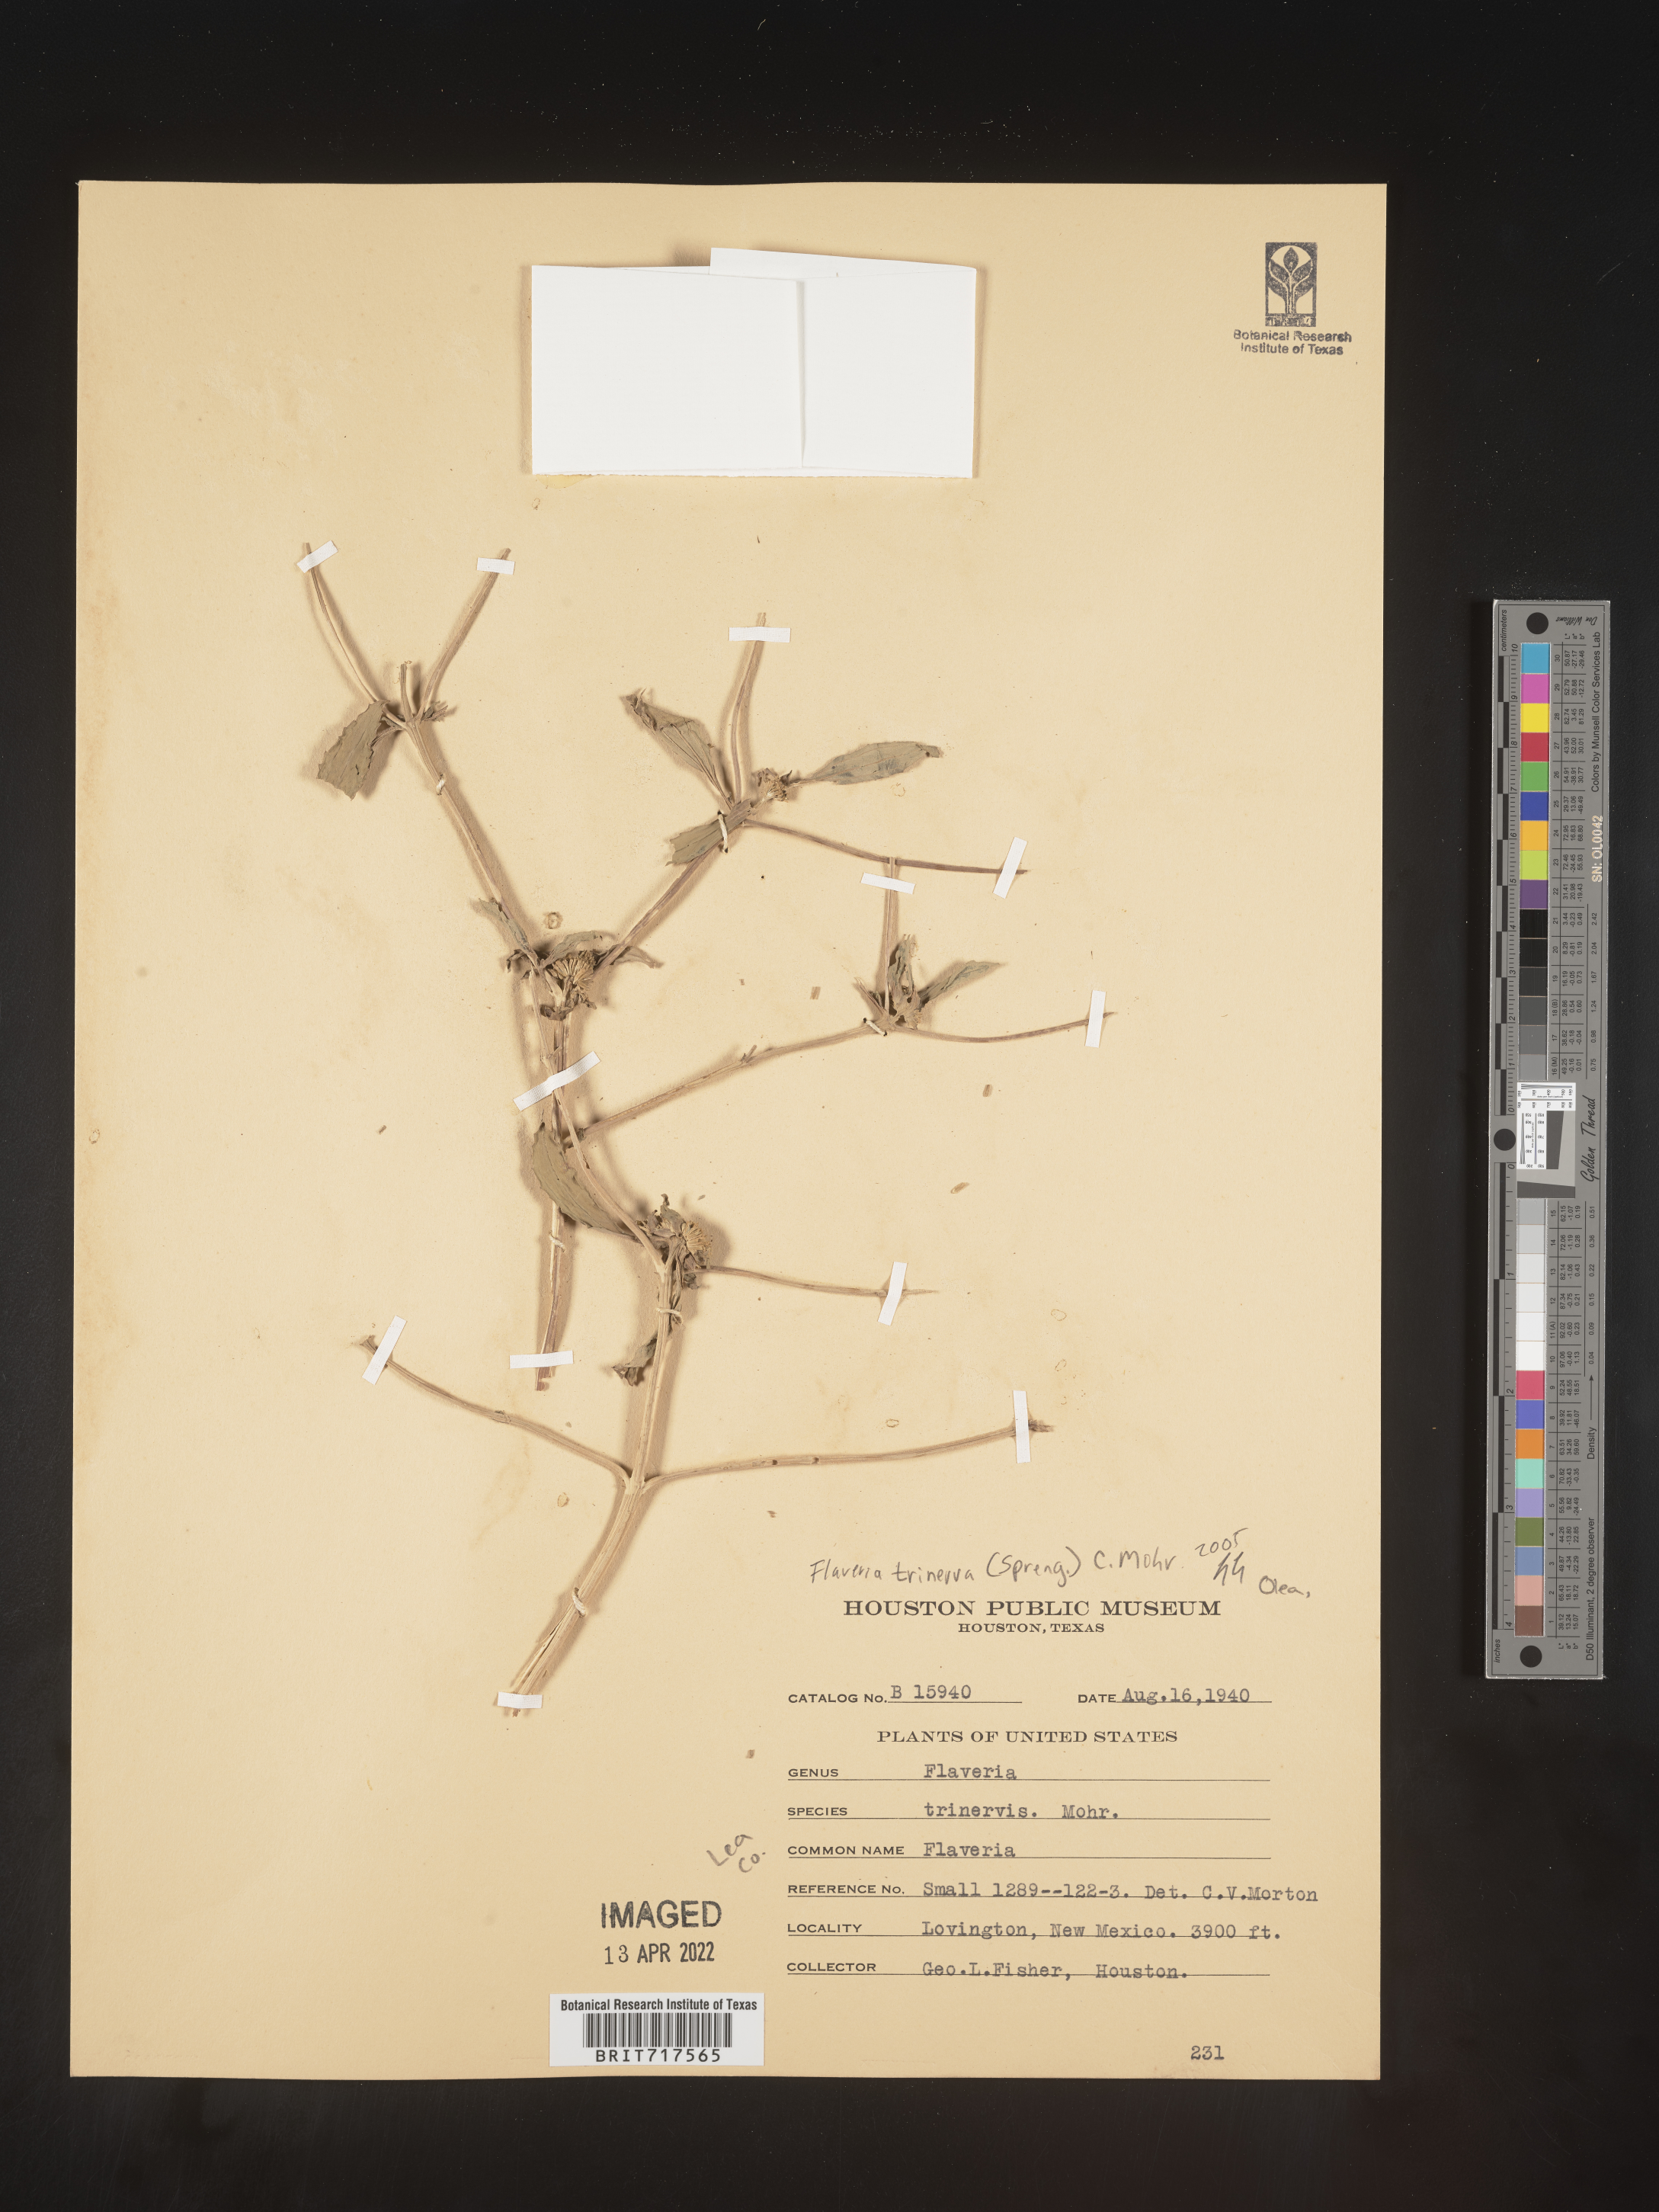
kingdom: Plantae
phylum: Tracheophyta
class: Magnoliopsida
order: Asterales
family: Asteraceae
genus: Flaveria
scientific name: Flaveria campestris
